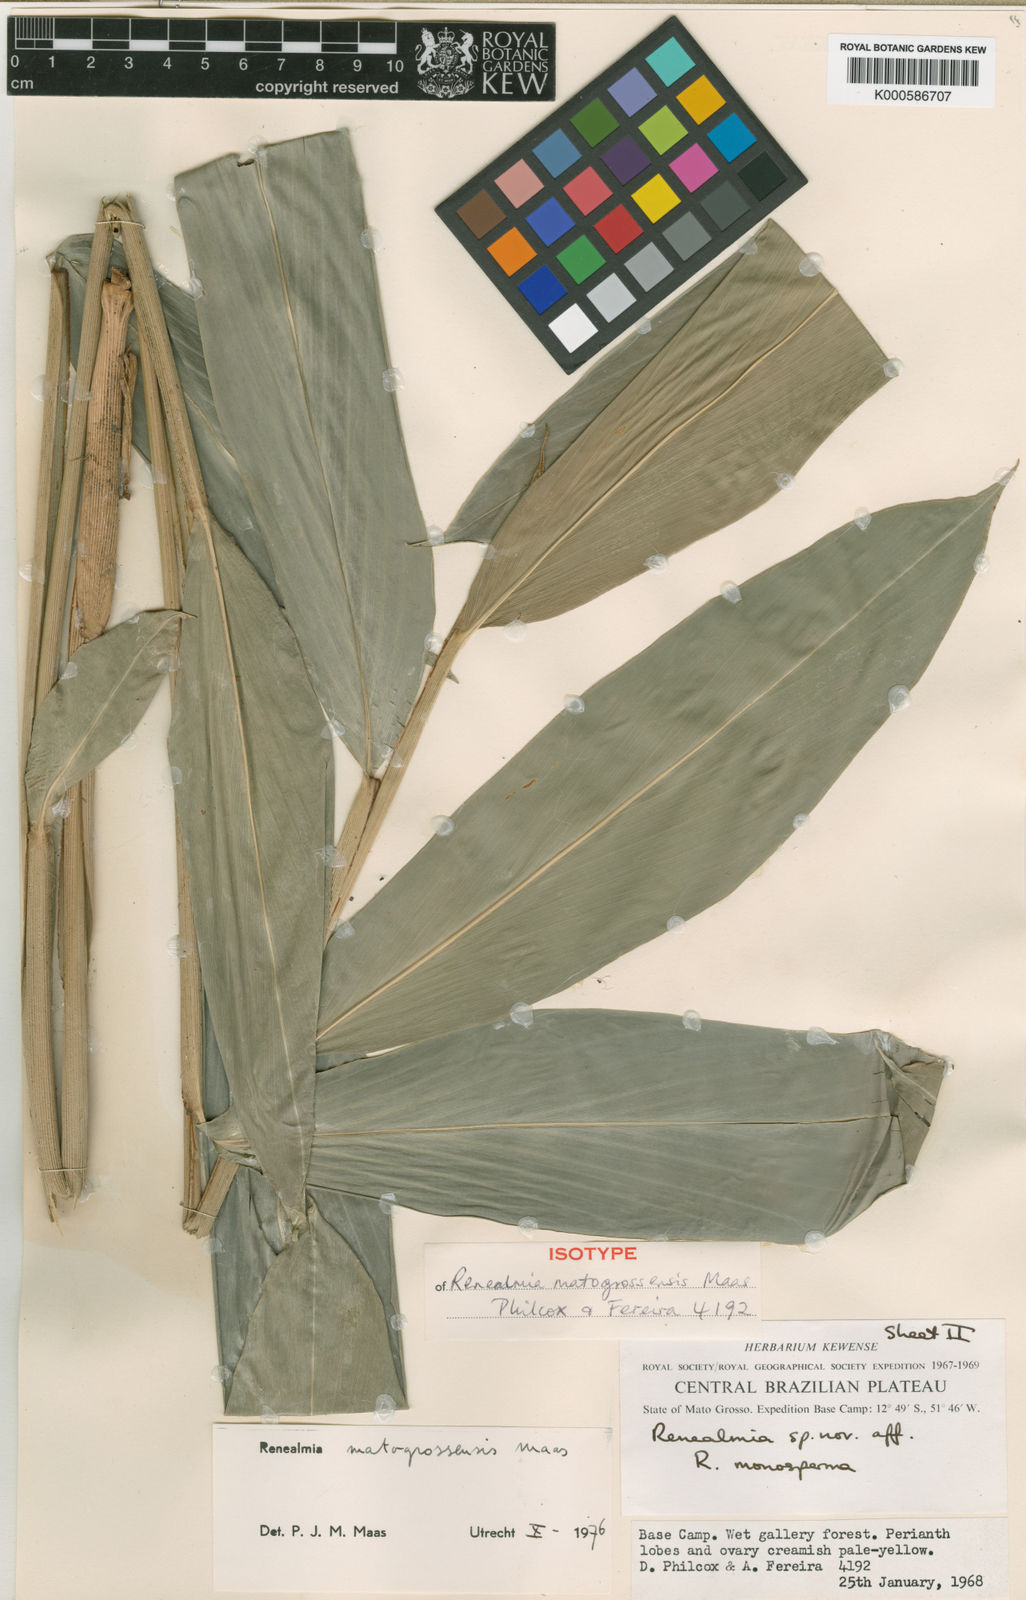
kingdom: Plantae
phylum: Tracheophyta
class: Liliopsida
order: Zingiberales
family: Zingiberaceae
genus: Renealmia
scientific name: Renealmia
